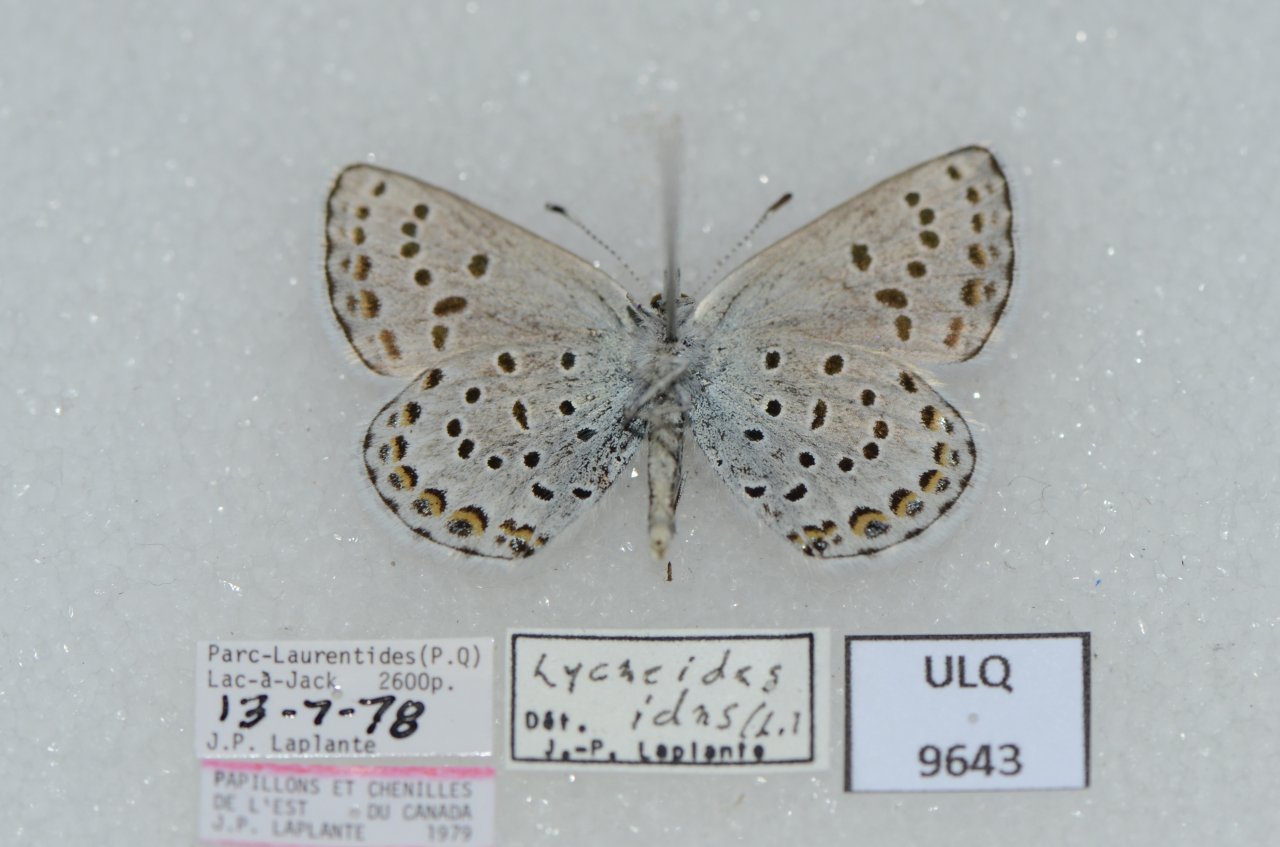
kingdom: Animalia
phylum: Arthropoda
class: Insecta
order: Lepidoptera
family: Lycaenidae
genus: Lycaeides
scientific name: Lycaeides idas
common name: Northern Blue
